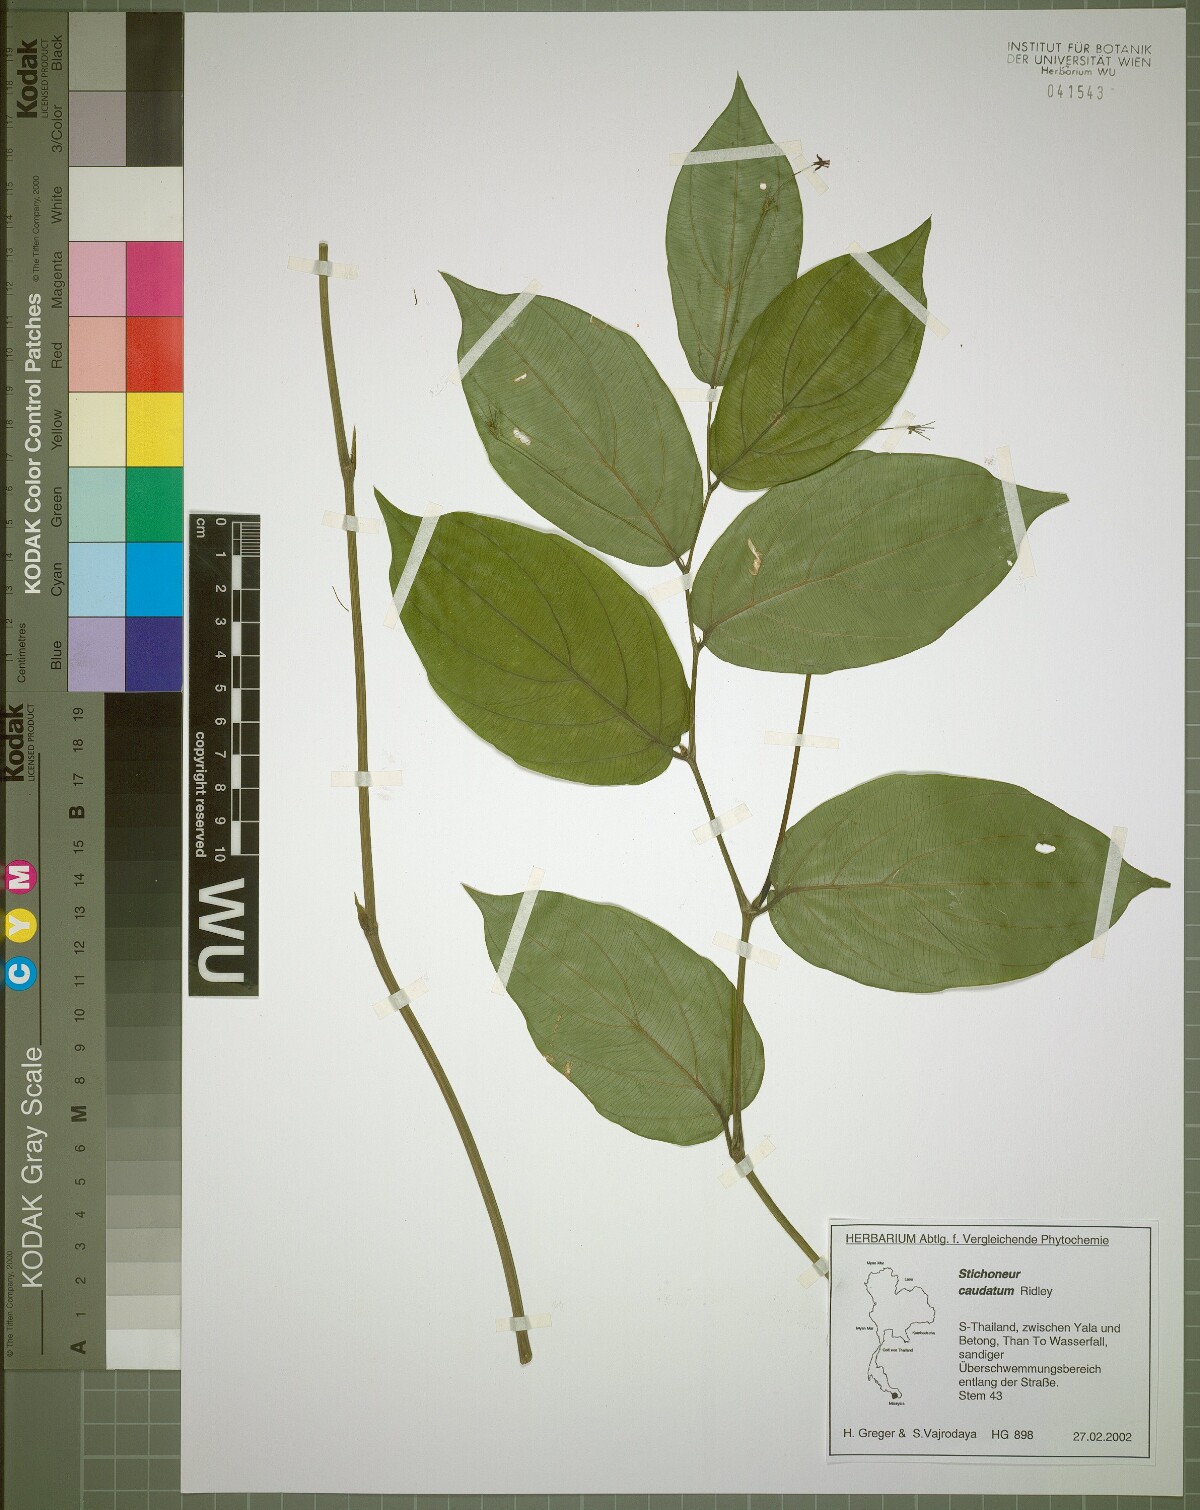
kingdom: Plantae
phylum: Tracheophyta
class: Liliopsida
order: Pandanales
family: Stemonaceae
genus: Stichoneuron
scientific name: Stichoneuron caudatum
